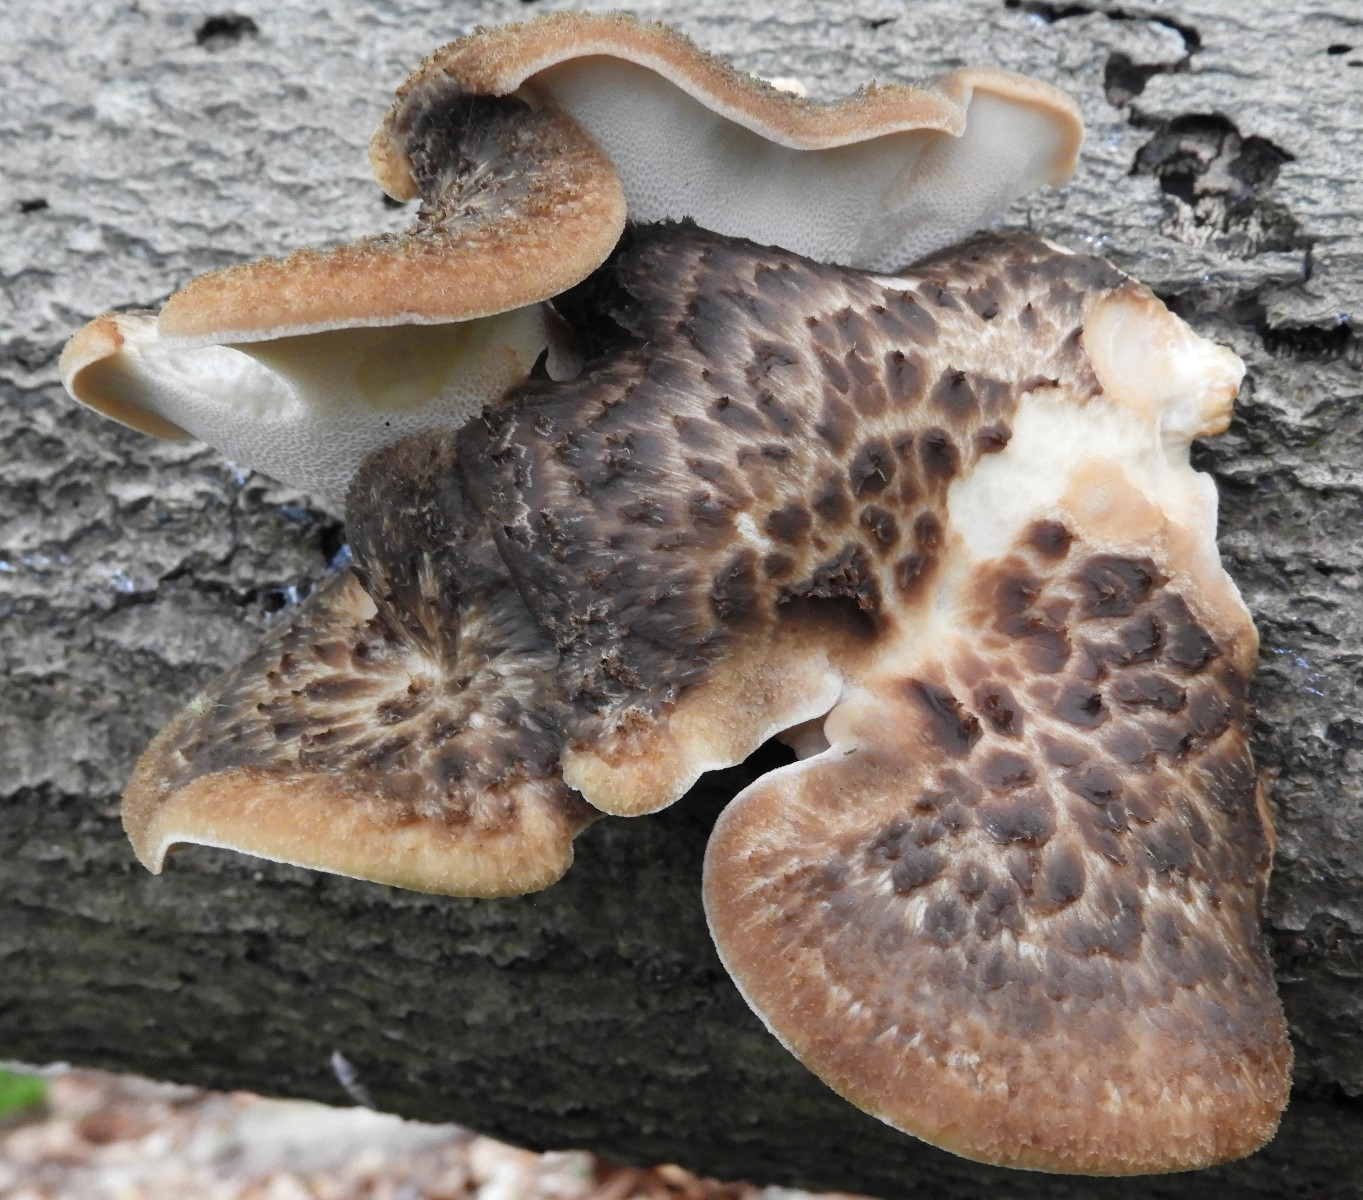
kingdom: Fungi
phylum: Basidiomycota
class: Agaricomycetes
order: Polyporales
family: Polyporaceae
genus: Polyporus
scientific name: Polyporus tuberaster
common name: knoldet stilkporesvamp
